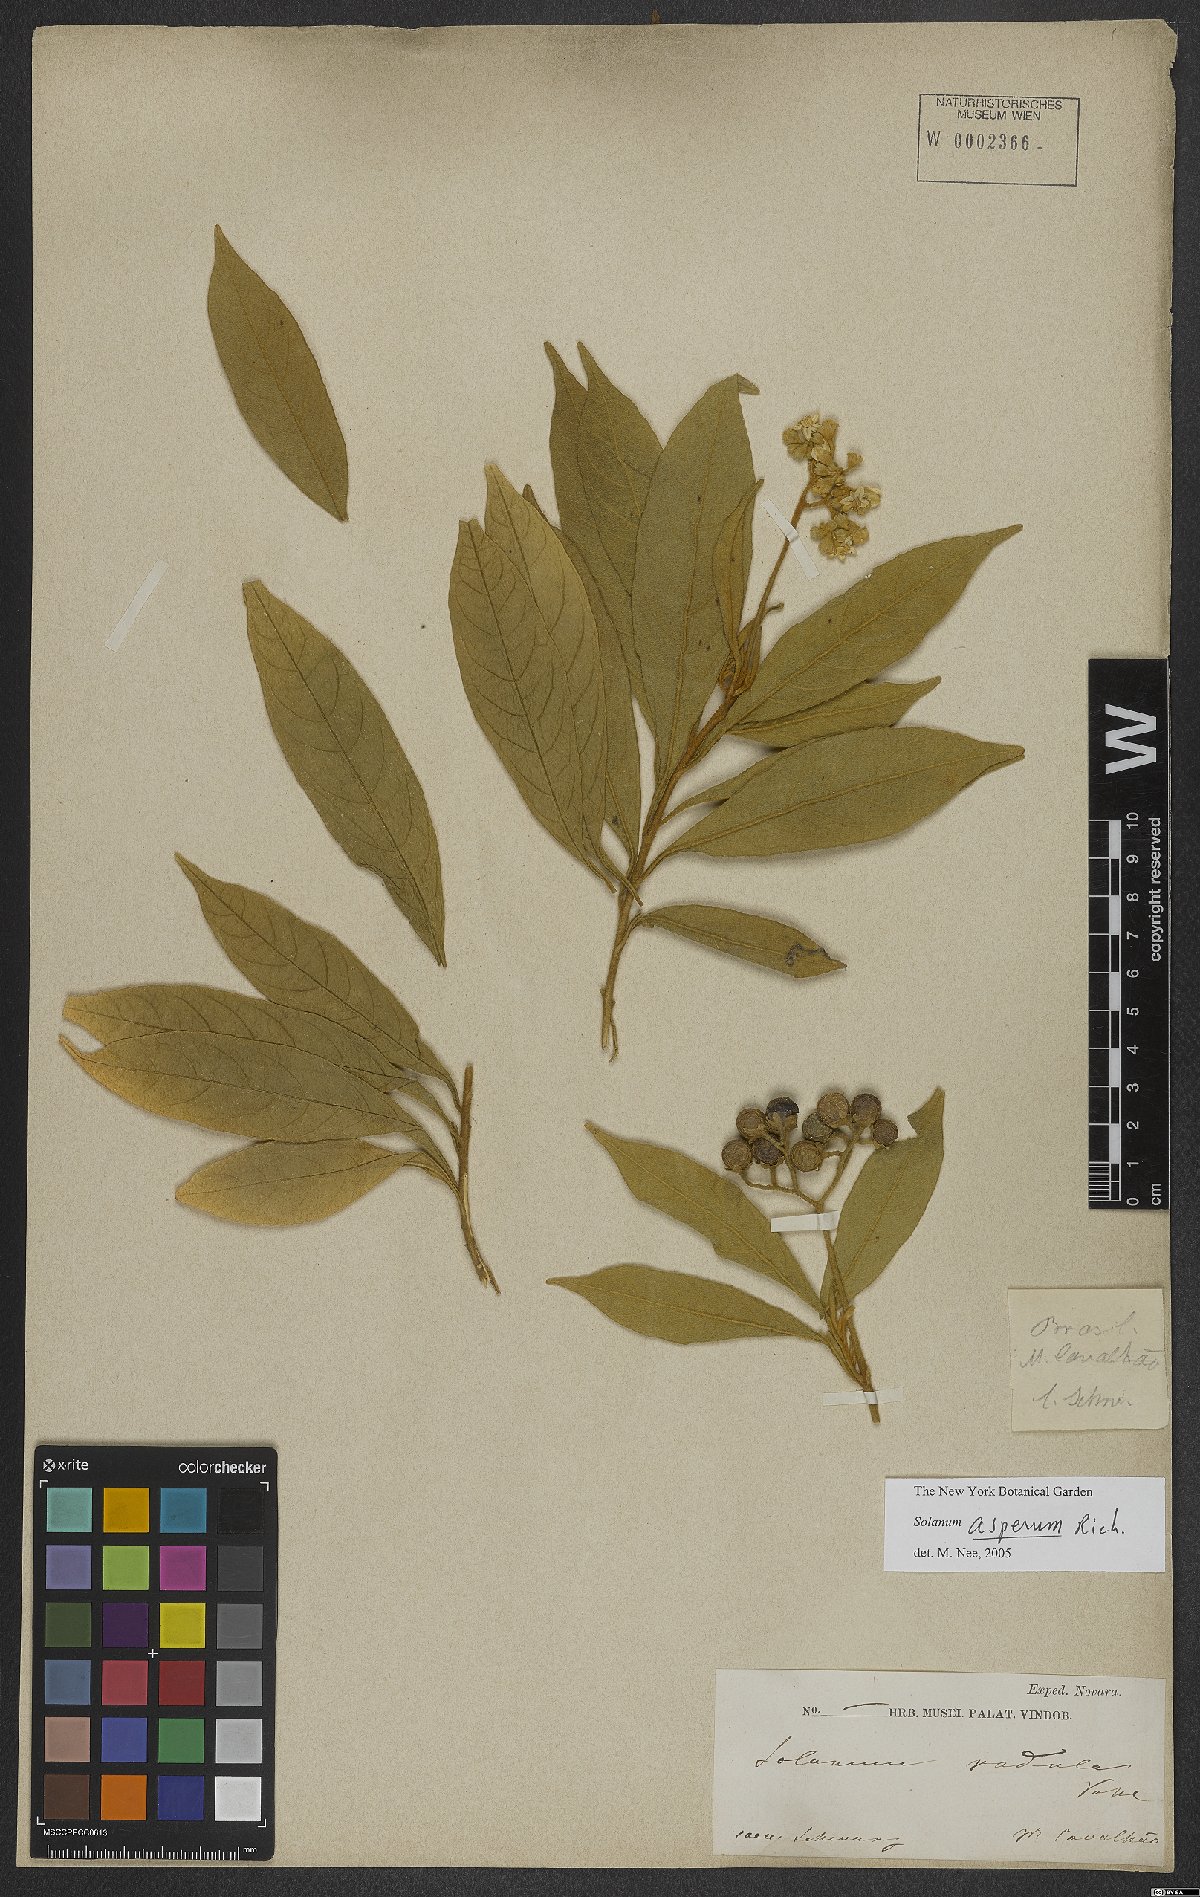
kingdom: Plantae
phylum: Tracheophyta
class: Magnoliopsida
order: Solanales
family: Solanaceae
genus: Solanum
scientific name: Solanum asperum
